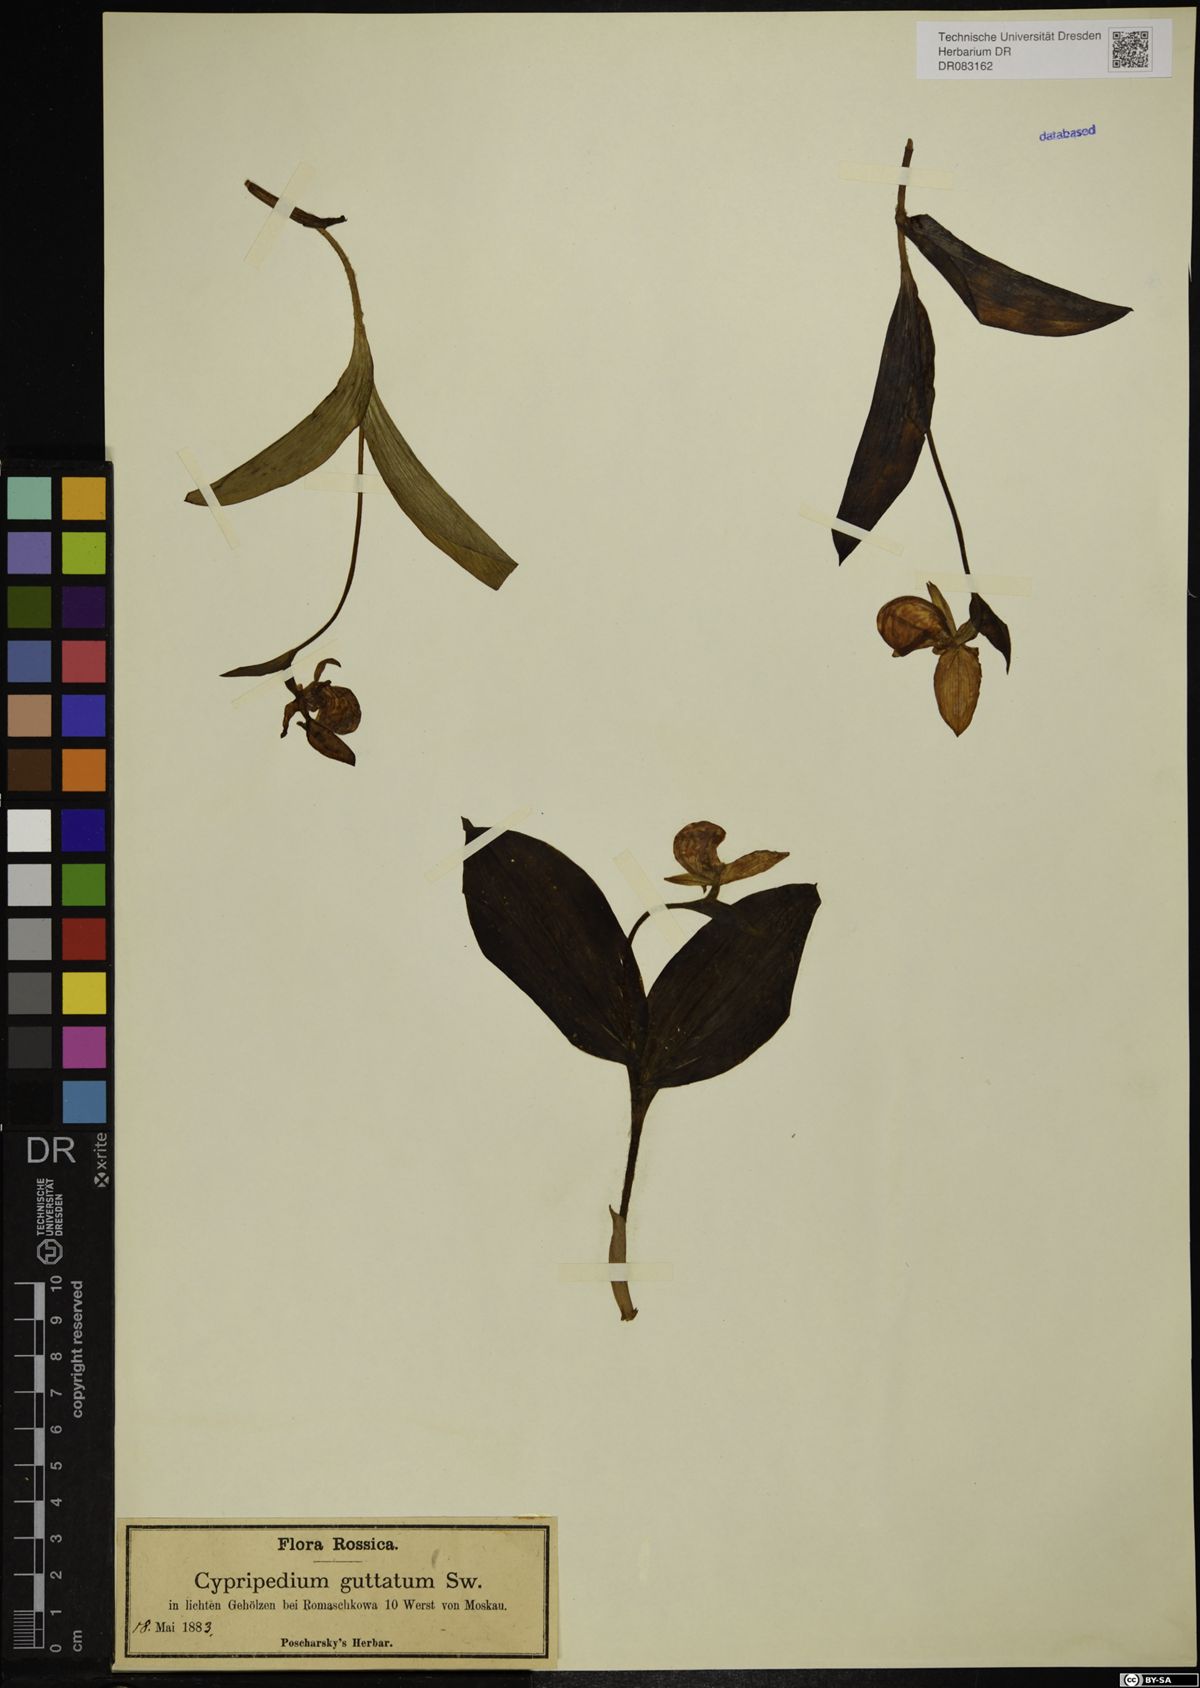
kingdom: Plantae
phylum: Tracheophyta
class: Liliopsida
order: Asparagales
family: Orchidaceae
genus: Cypripedium
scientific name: Cypripedium guttatum
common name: Pink lady slipper
